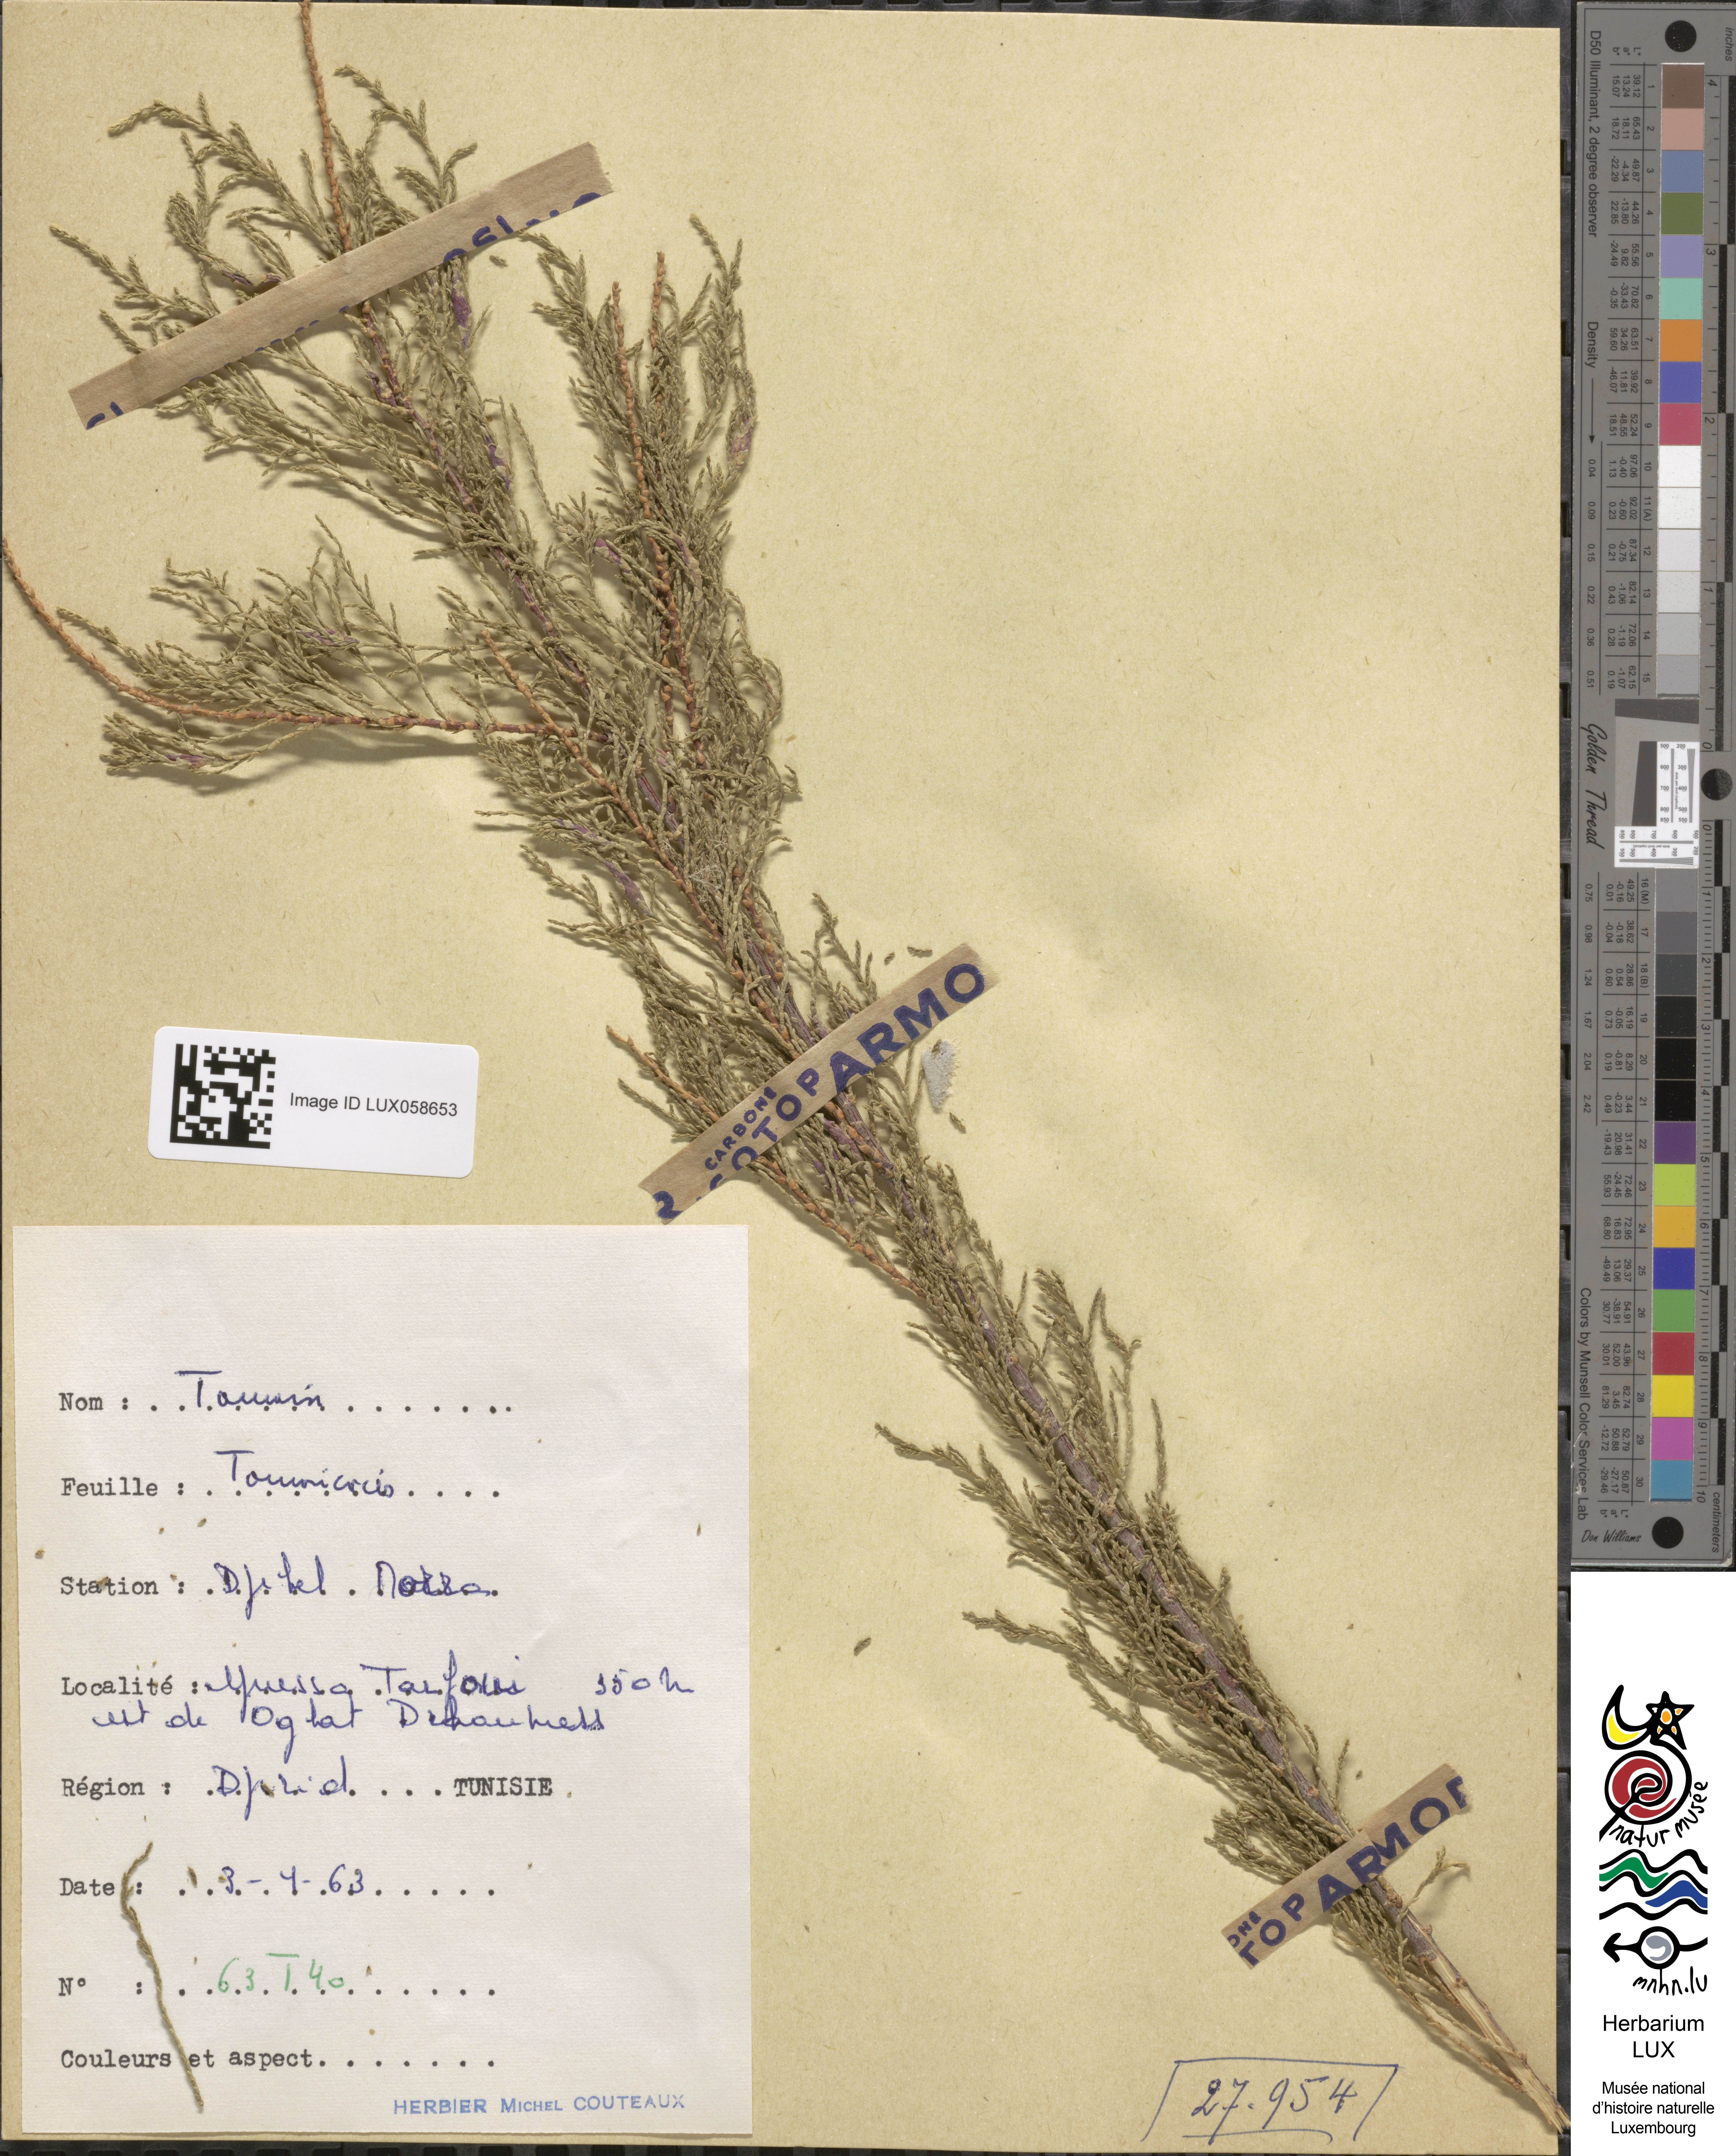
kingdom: Plantae
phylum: Tracheophyta
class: Magnoliopsida
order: Caryophyllales
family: Tamaricaceae
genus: Tamarix
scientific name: Tamarix
